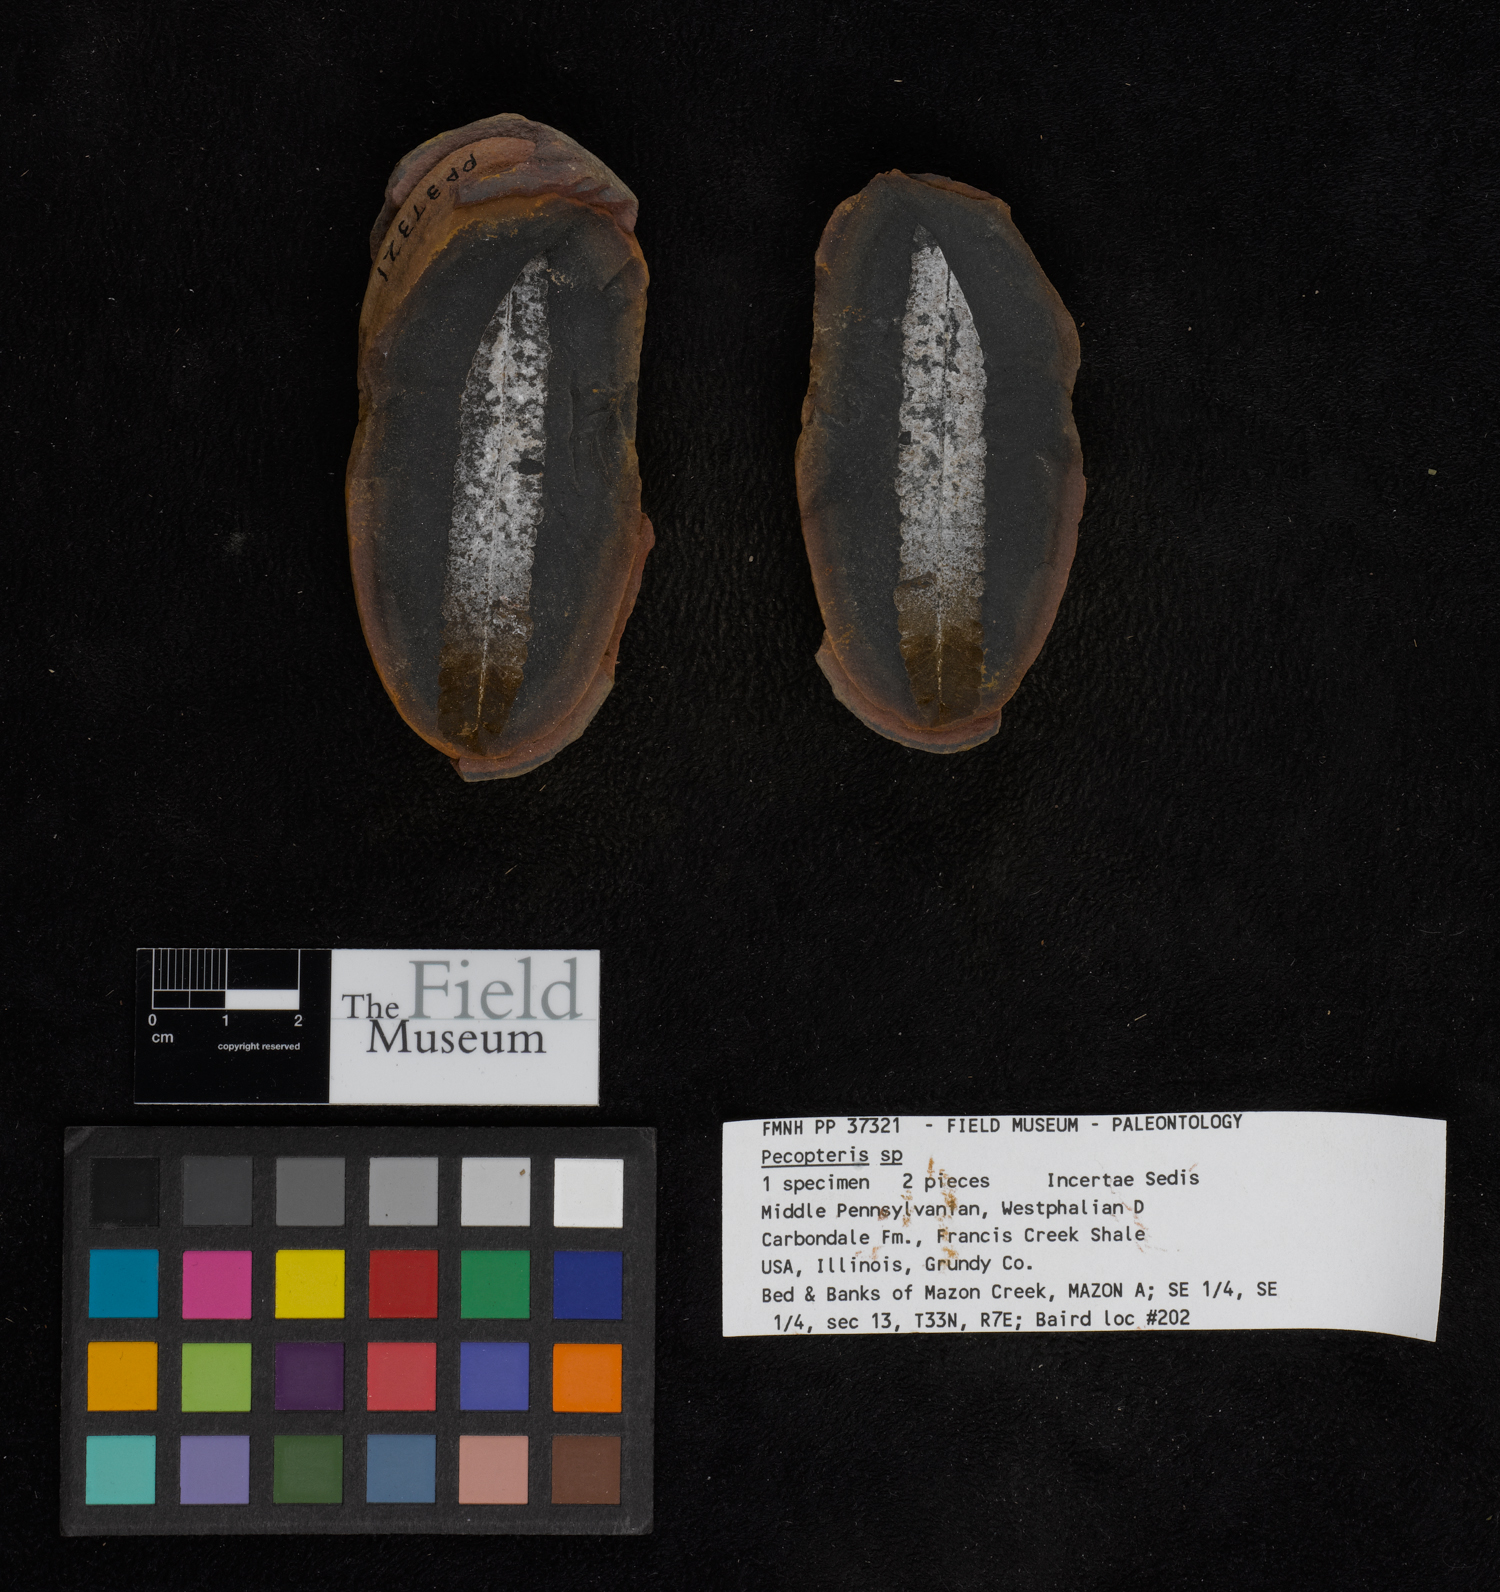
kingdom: Plantae
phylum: Tracheophyta
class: Polypodiopsida
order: Marattiales
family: Asterothecaceae
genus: Pecopteris
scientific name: Pecopteris
